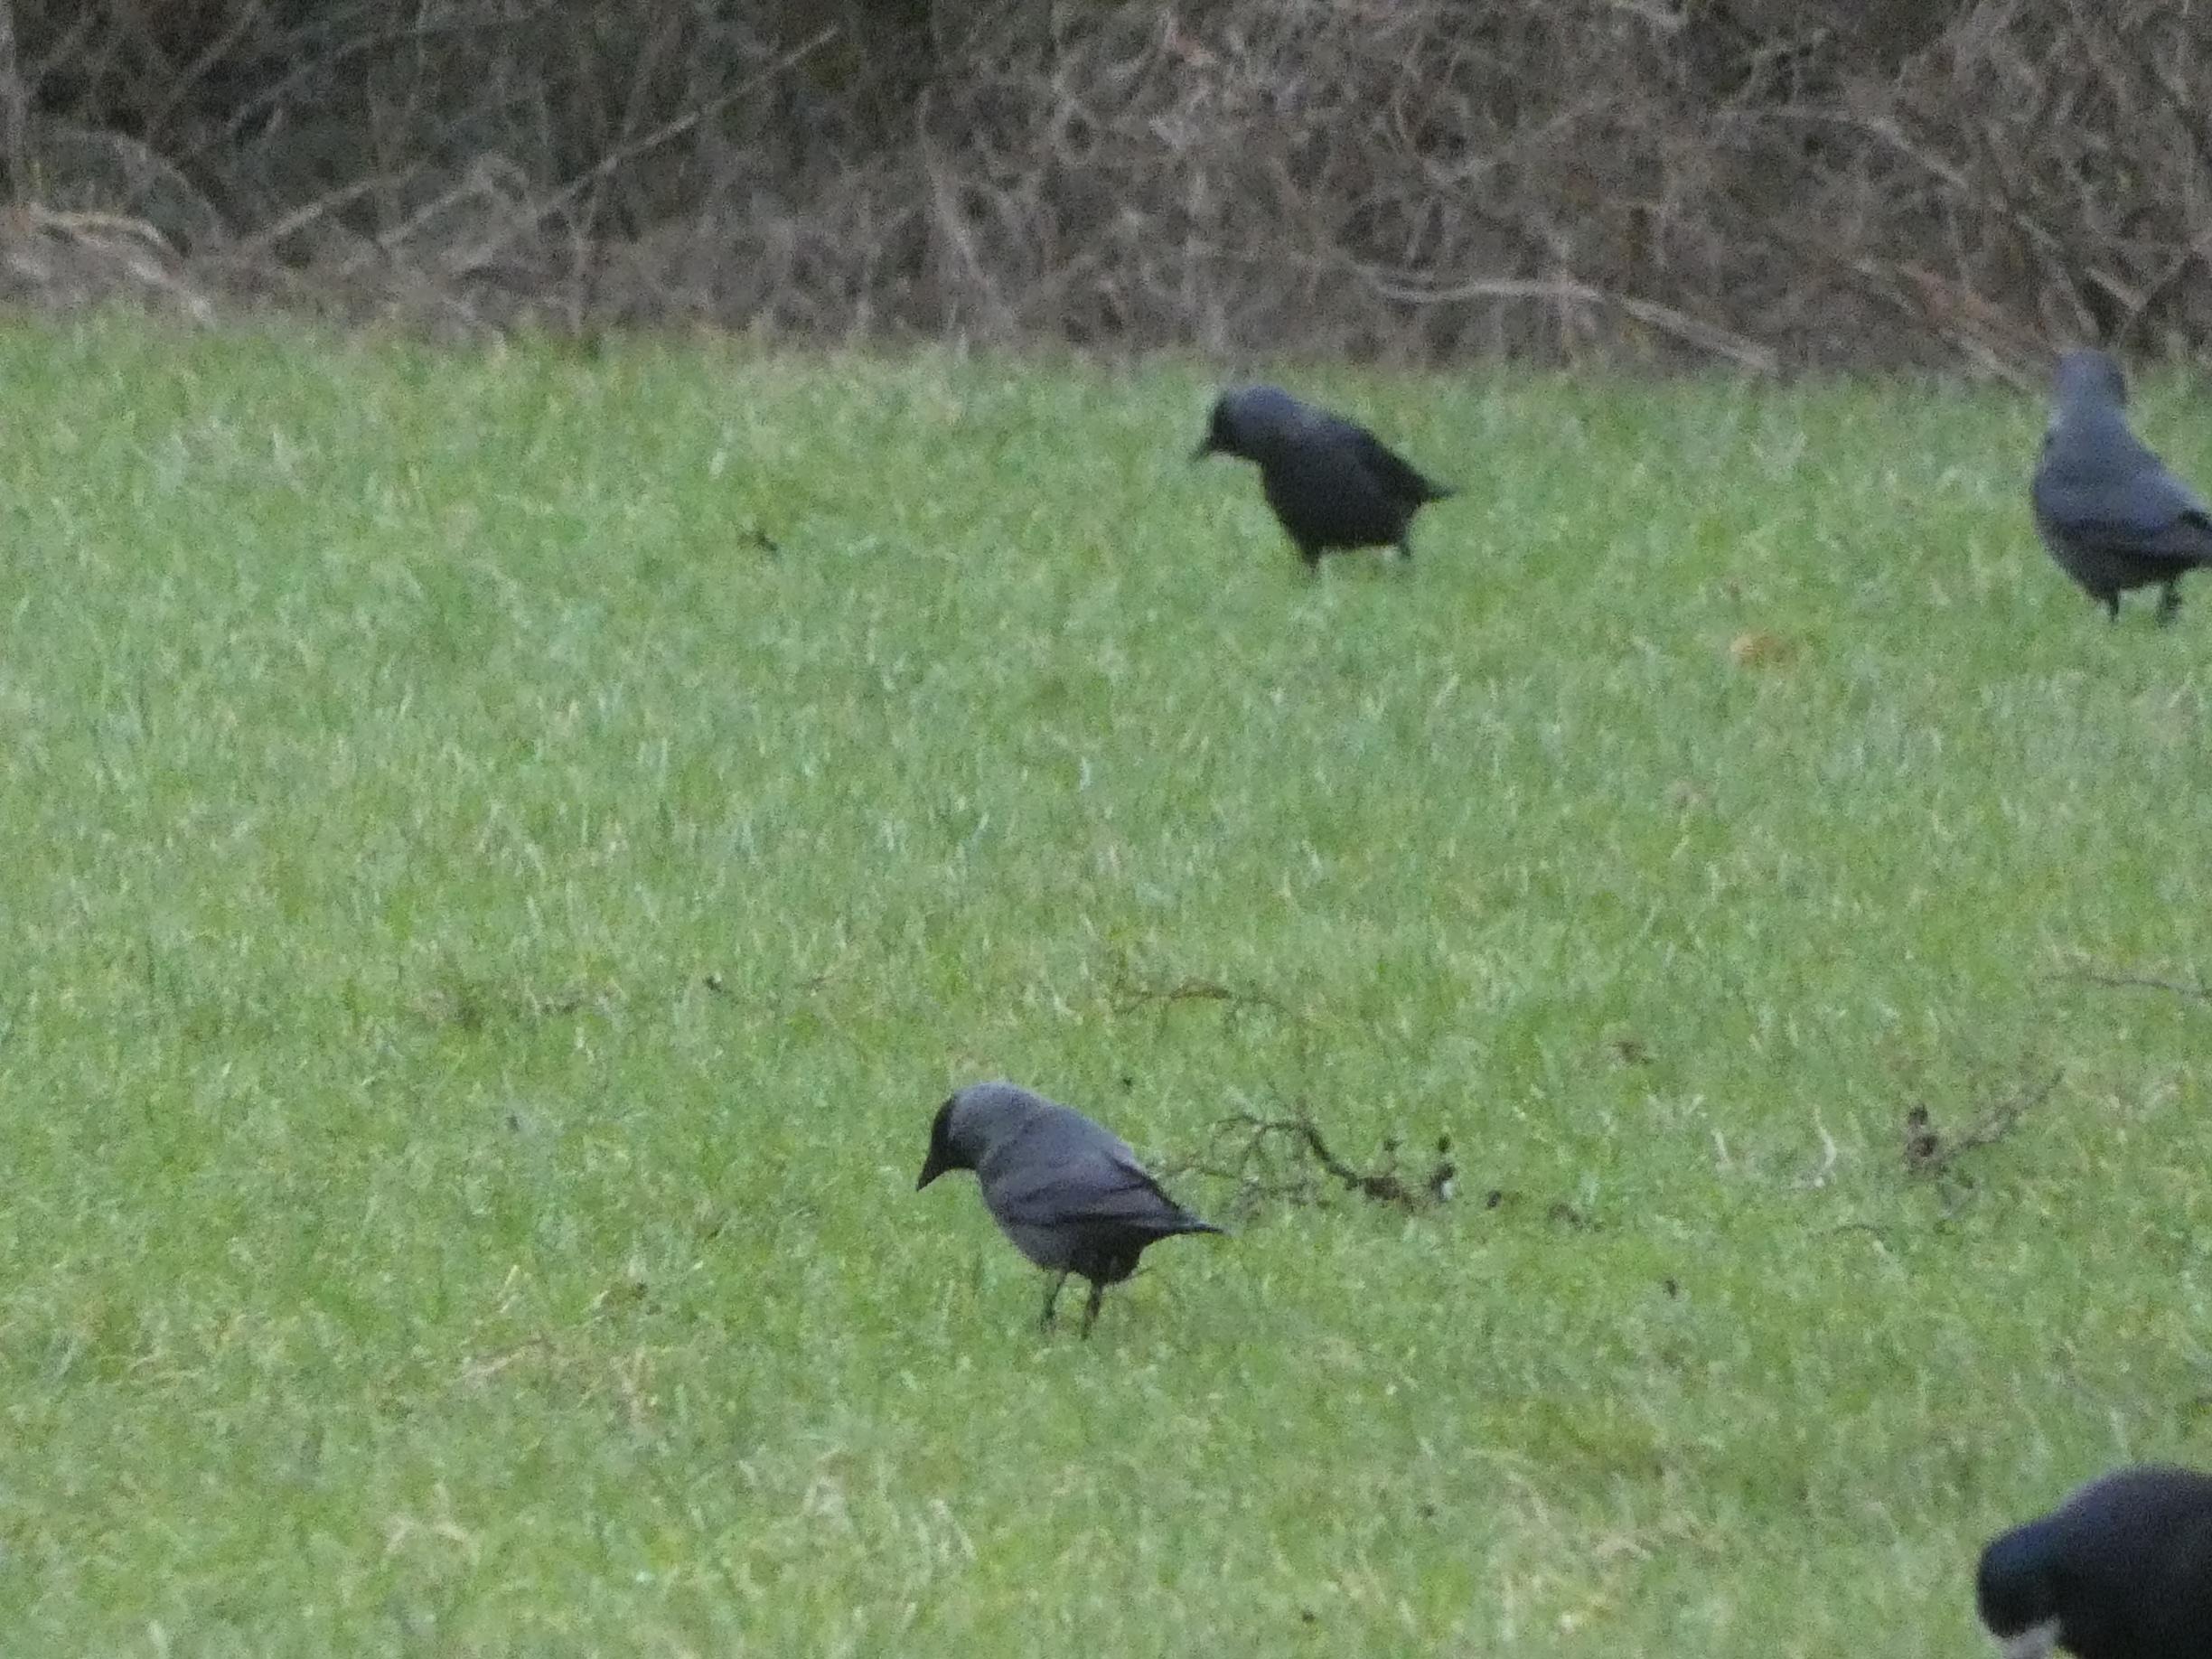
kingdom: Animalia
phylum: Chordata
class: Aves
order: Passeriformes
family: Corvidae
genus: Coloeus
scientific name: Coloeus monedula
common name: Allike
